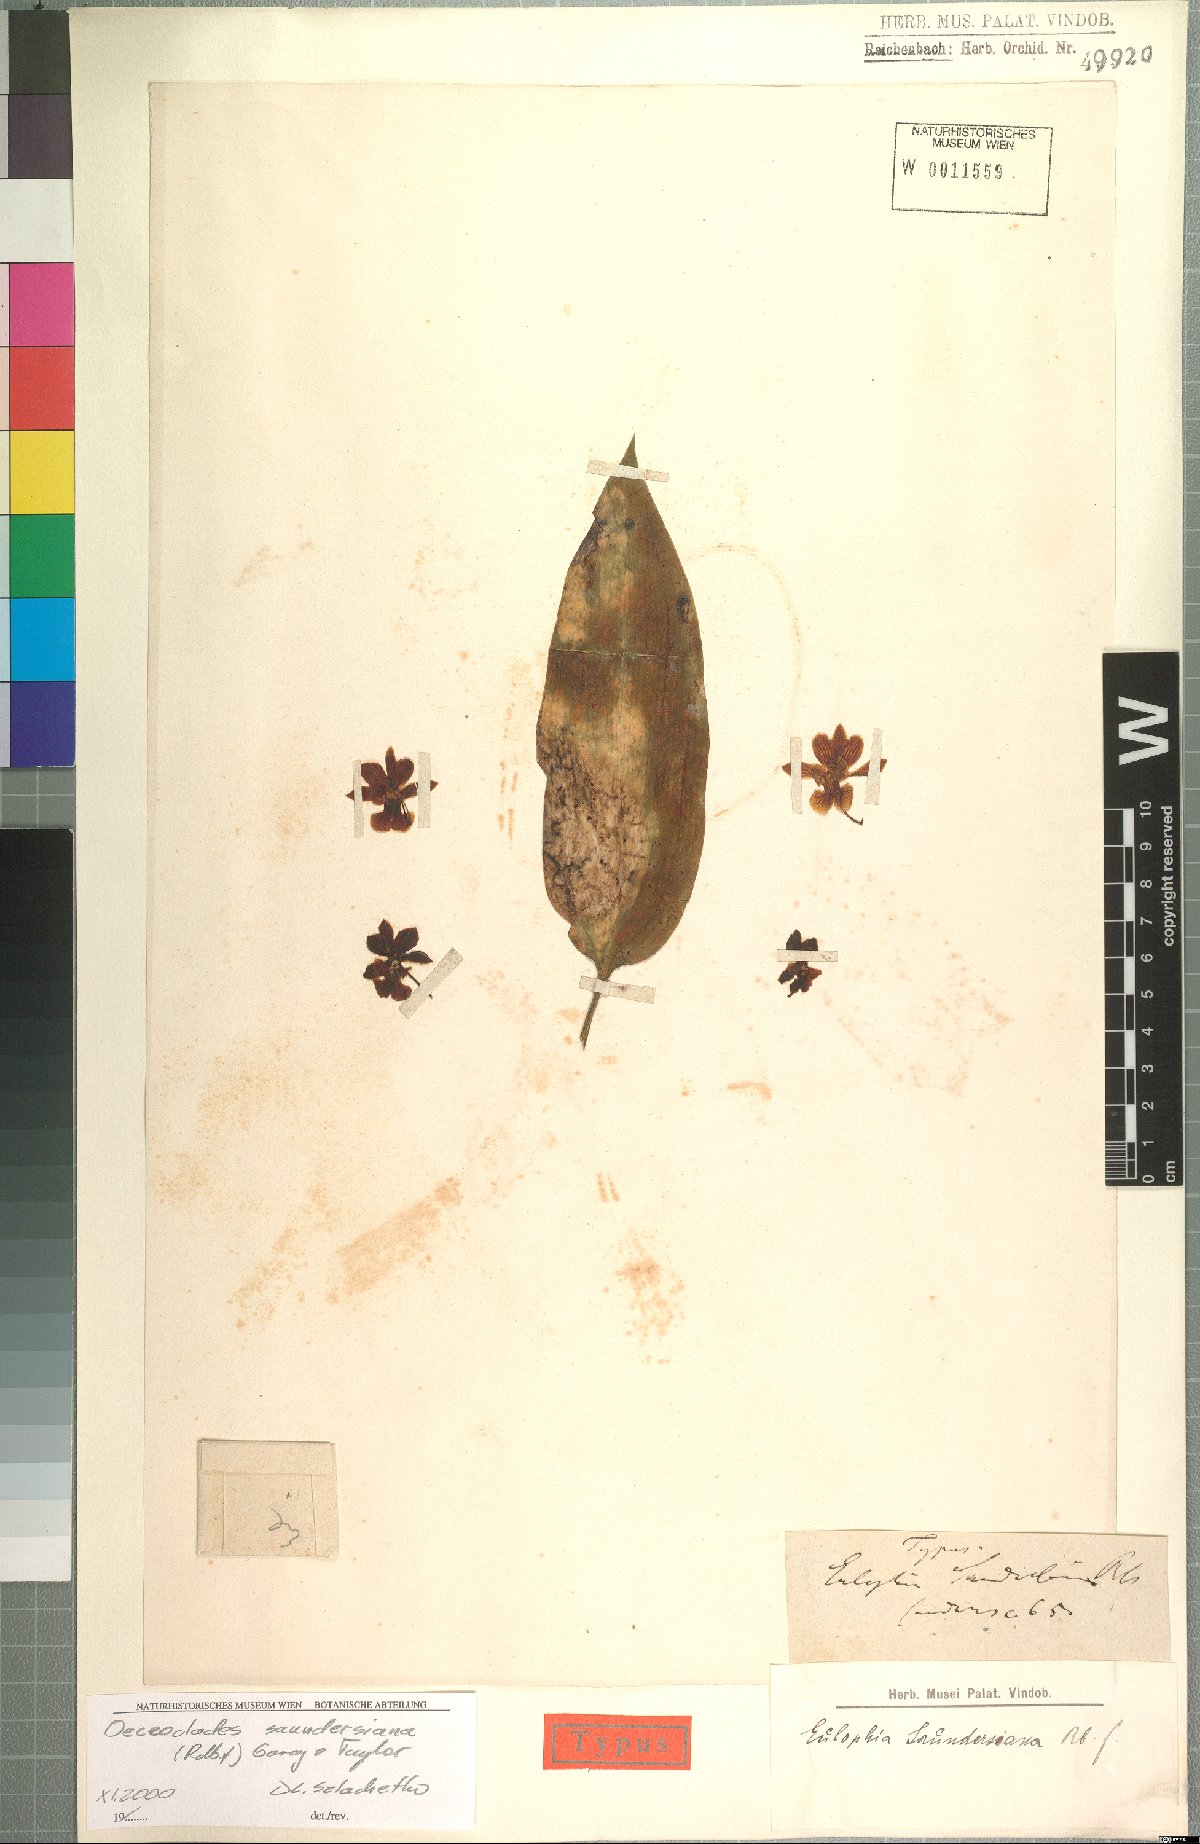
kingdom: Plantae
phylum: Tracheophyta
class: Liliopsida
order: Asparagales
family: Orchidaceae
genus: Eulophia
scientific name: Eulophia saundersiana
